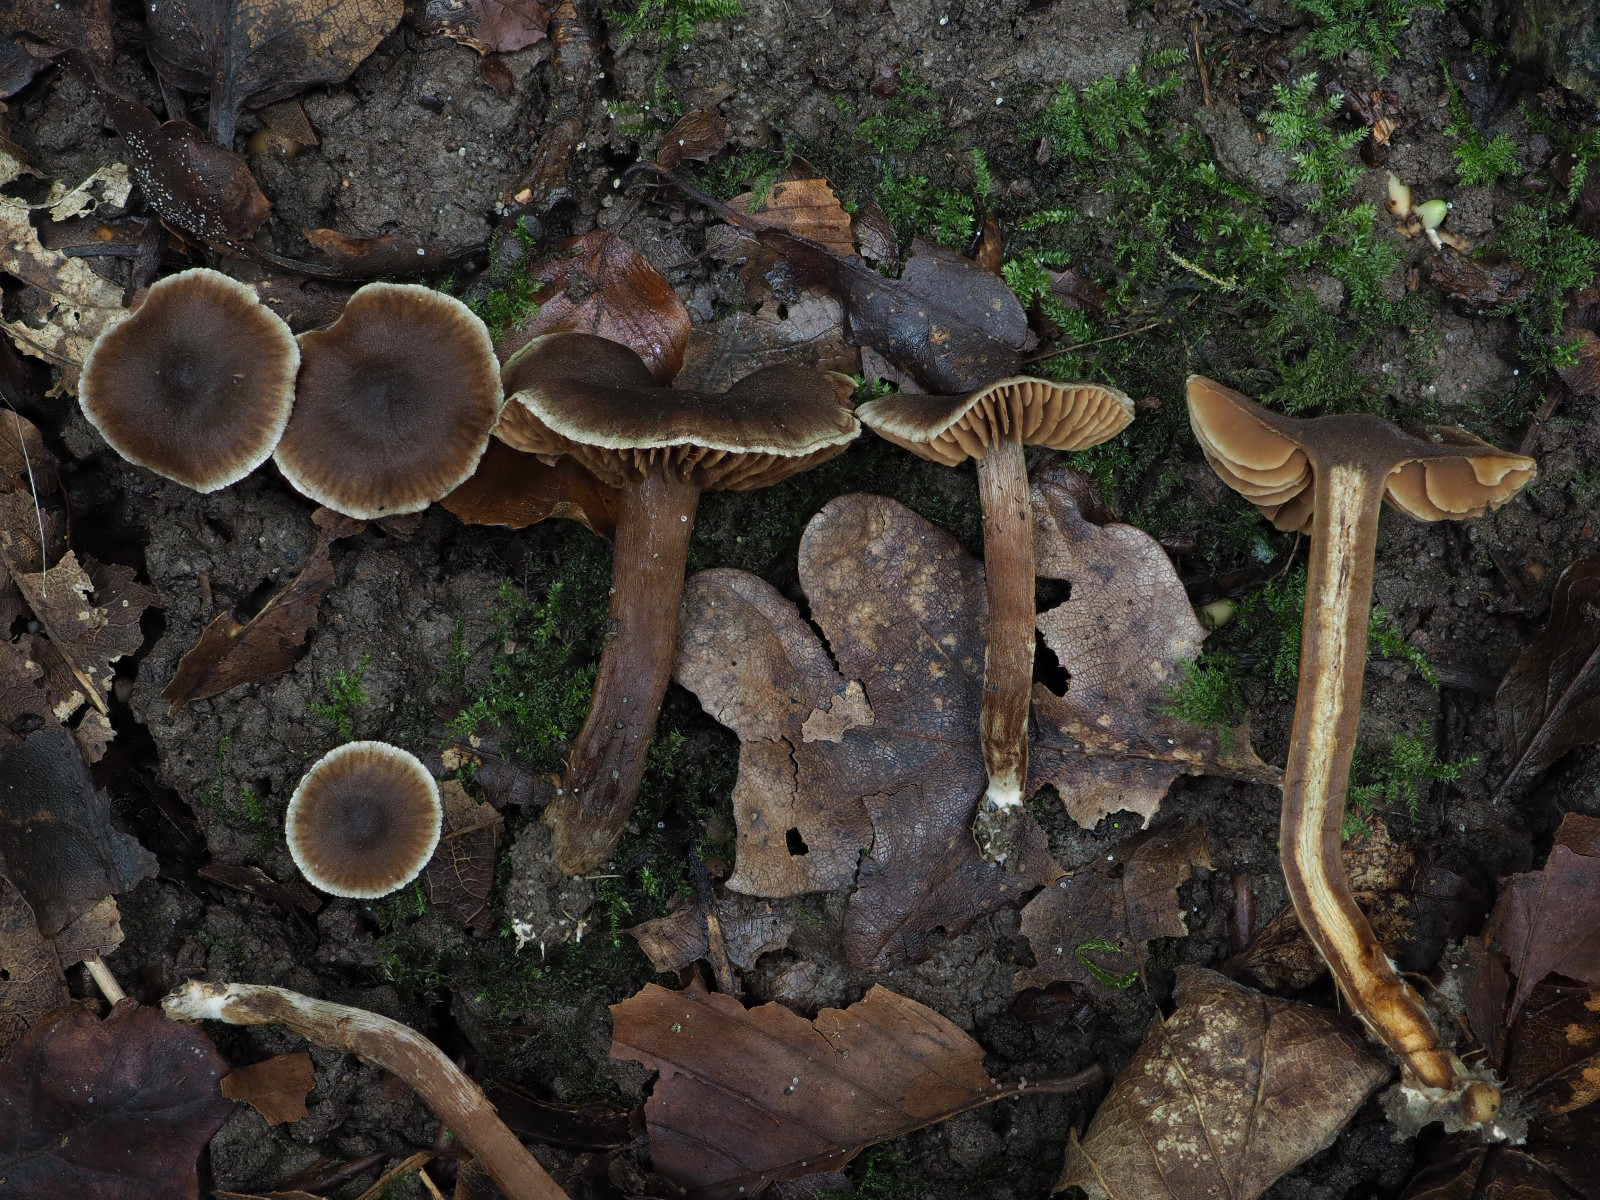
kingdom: Fungi
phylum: Basidiomycota
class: Agaricomycetes
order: Agaricales
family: Cortinariaceae
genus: Cortinarius
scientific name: Cortinarius alboadustus
